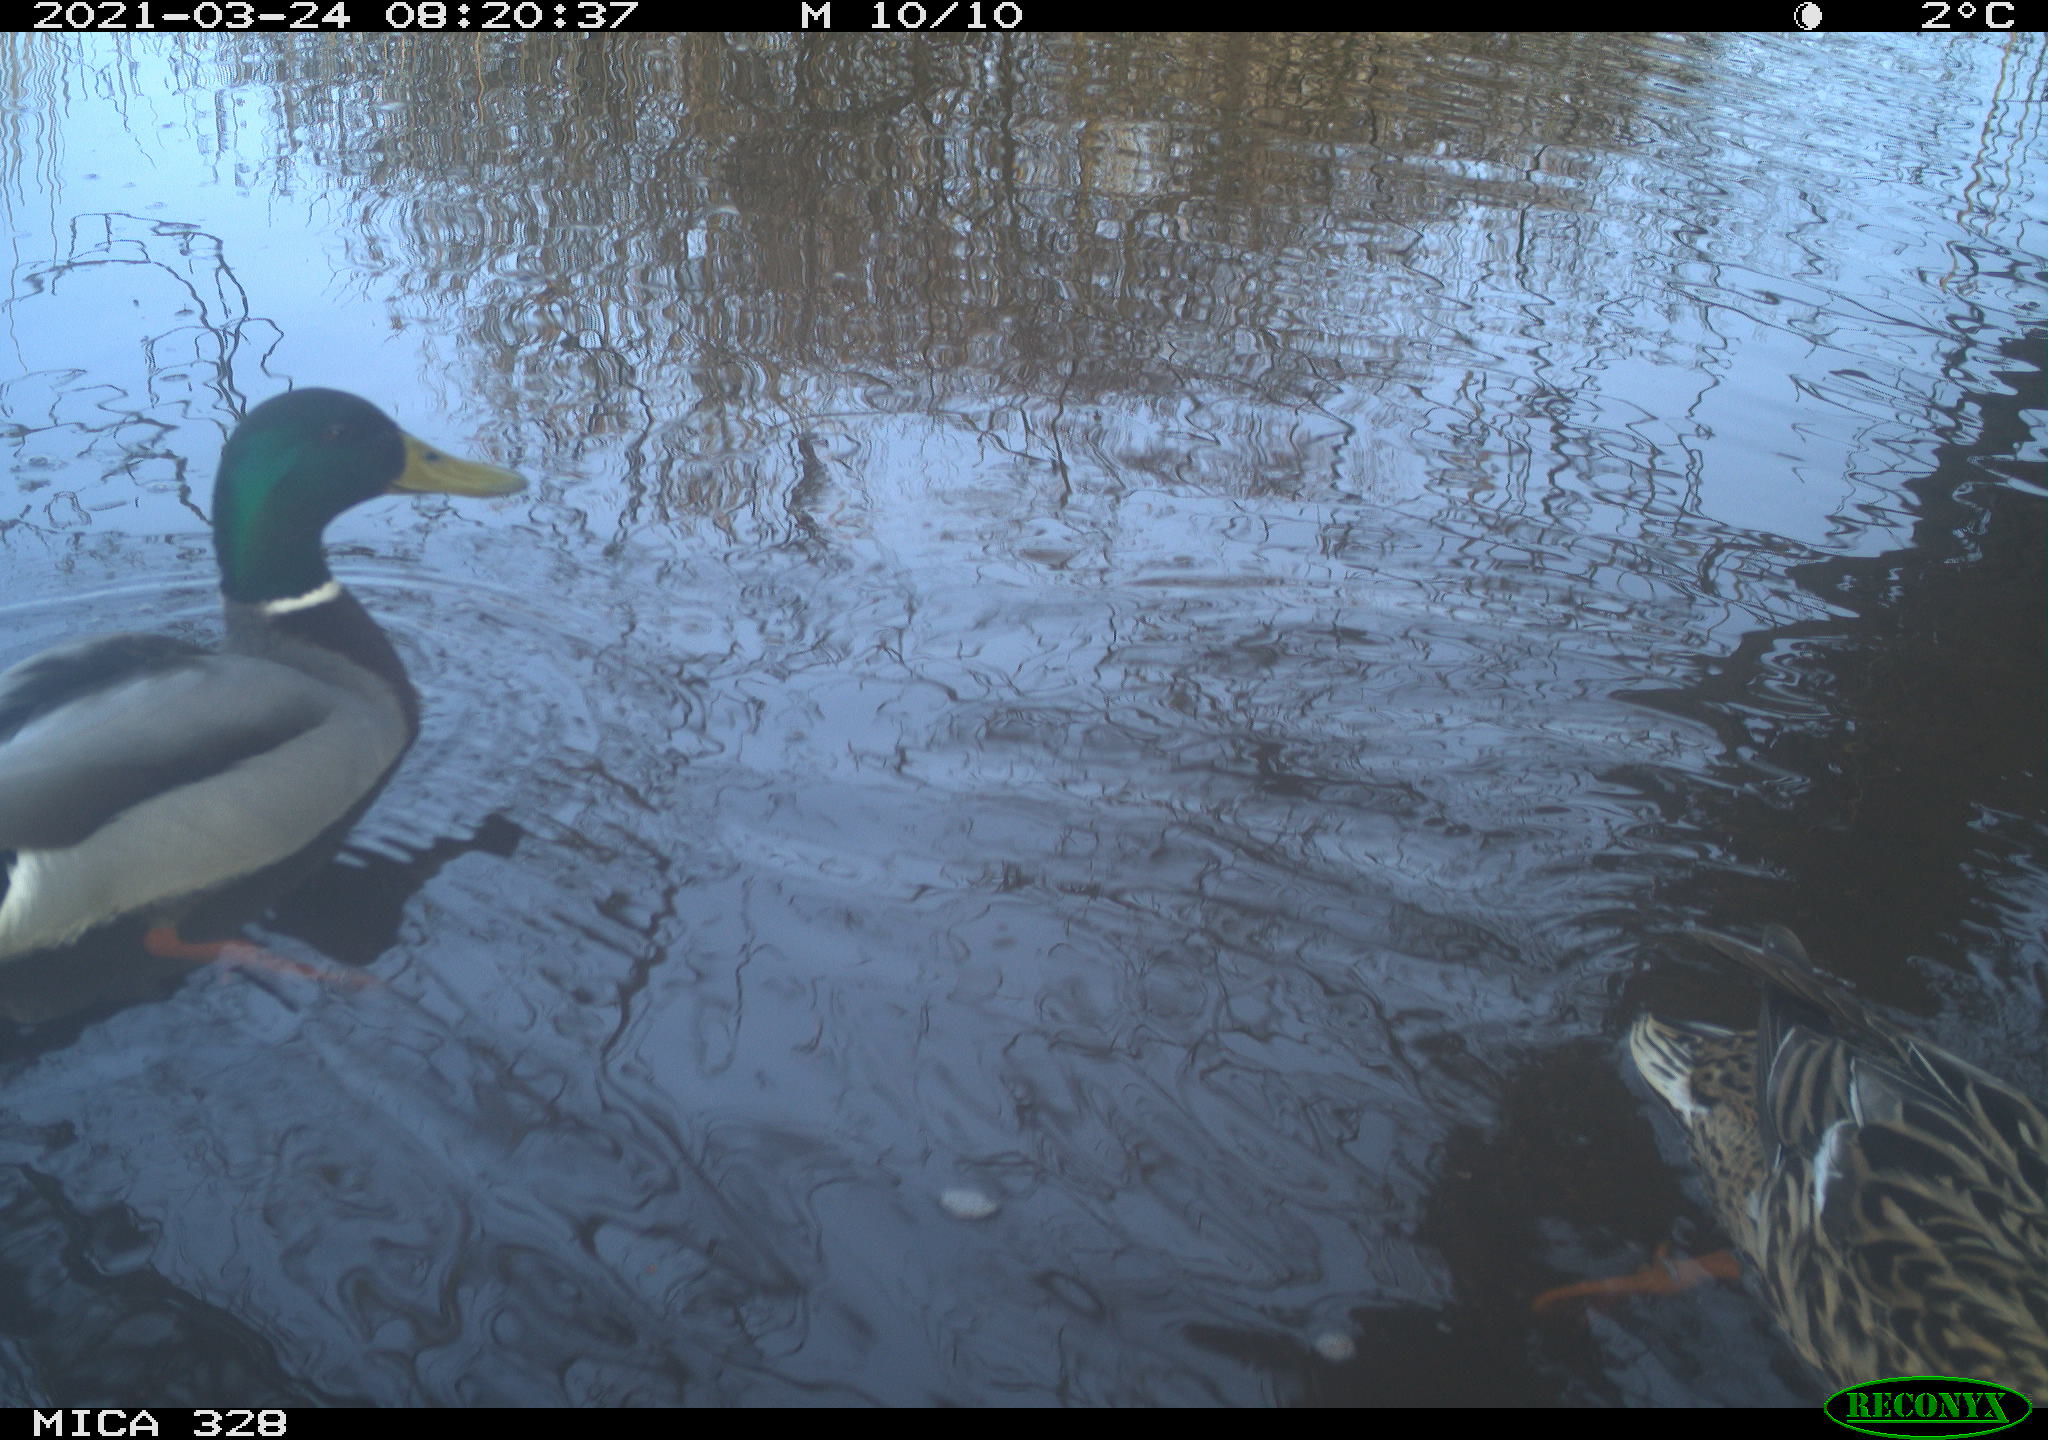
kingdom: Animalia
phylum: Chordata
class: Aves
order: Anseriformes
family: Anatidae
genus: Anas
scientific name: Anas platyrhynchos
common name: Mallard
